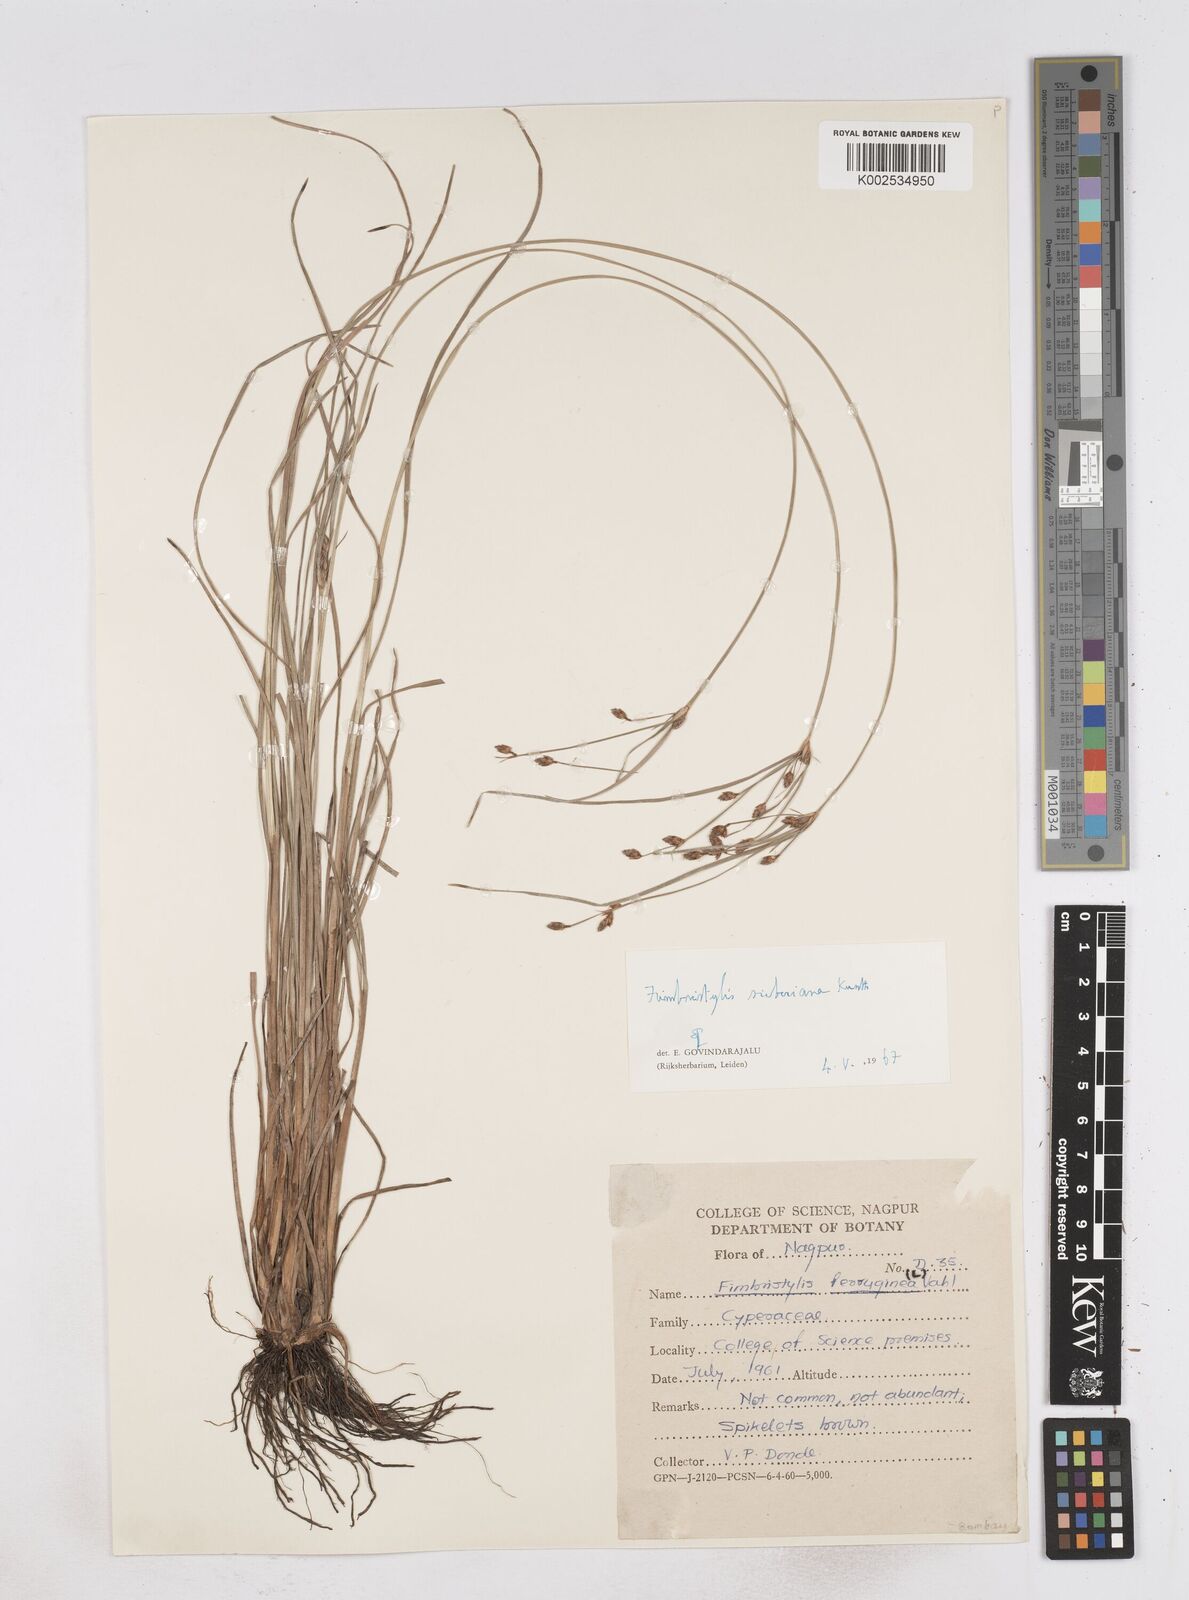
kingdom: Plantae
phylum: Tracheophyta
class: Liliopsida
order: Poales
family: Cyperaceae
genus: Fimbristylis
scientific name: Fimbristylis ferruginea
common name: West indian fimbry
